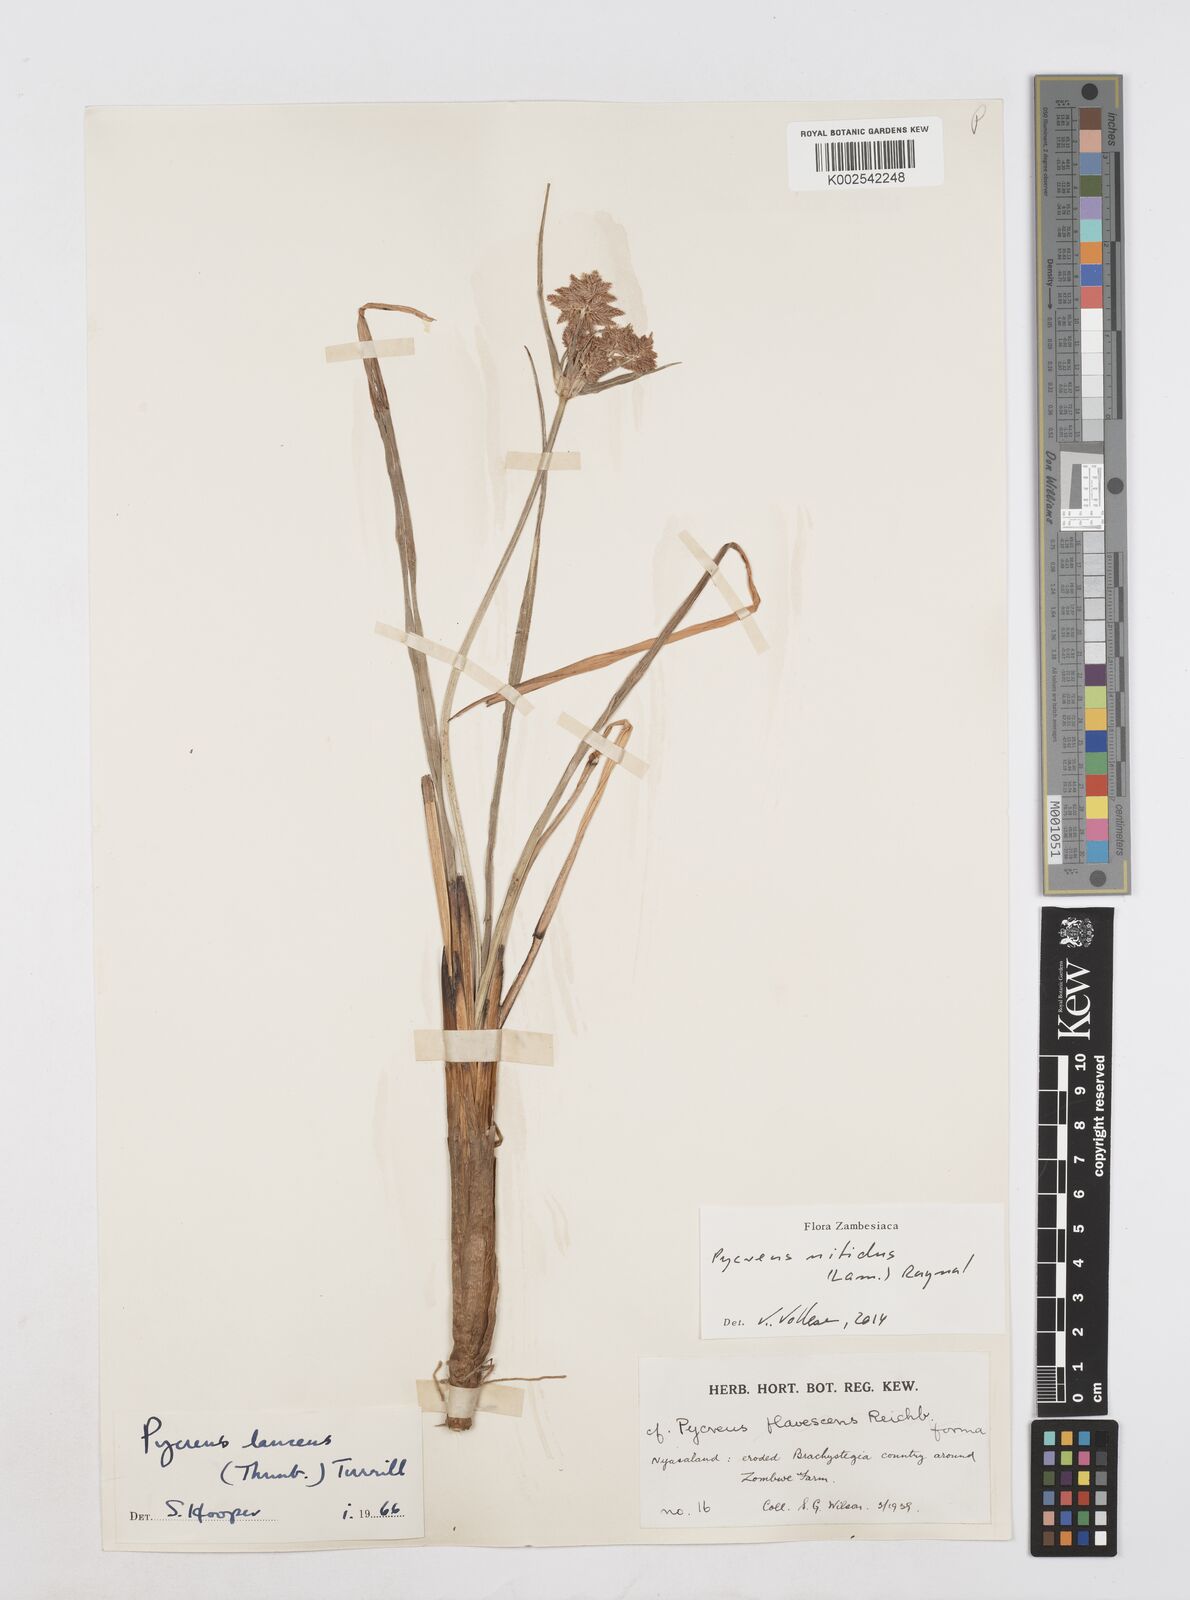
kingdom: Plantae
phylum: Tracheophyta
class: Liliopsida
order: Poales
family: Cyperaceae
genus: Cyperus
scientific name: Cyperus nitidus
